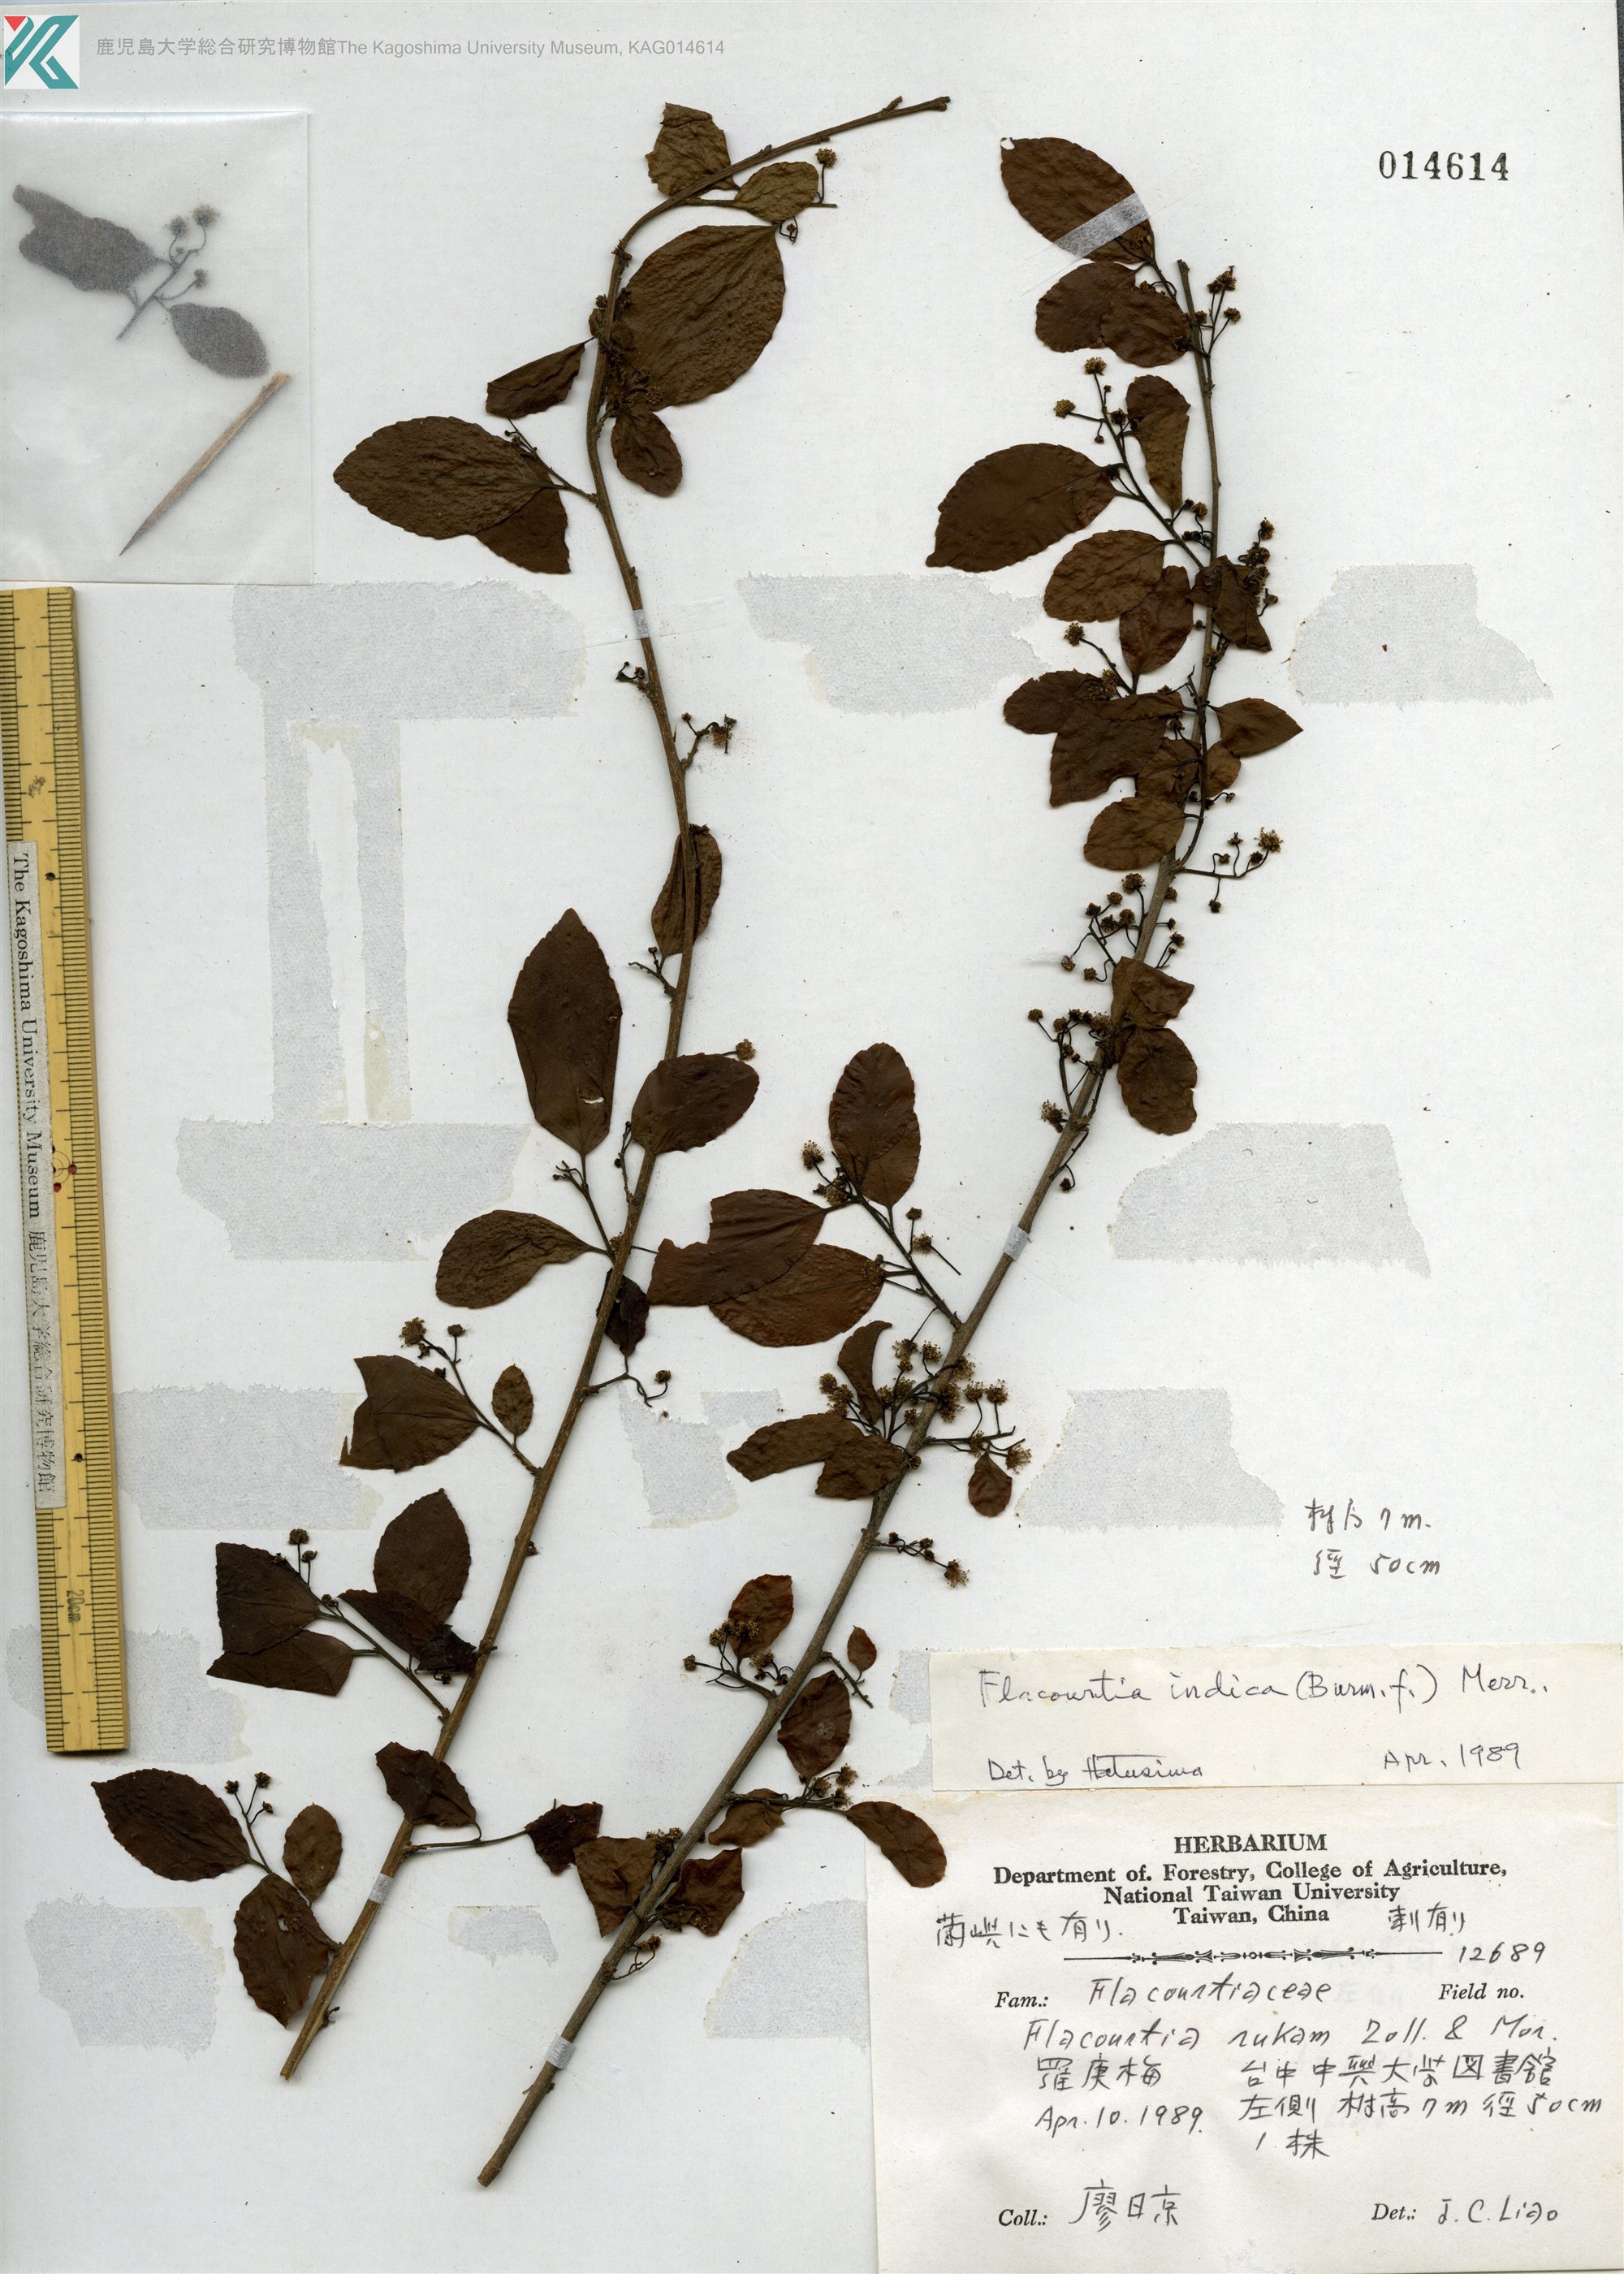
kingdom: Plantae
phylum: Tracheophyta
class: Magnoliopsida
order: Malpighiales
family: Salicaceae
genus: Flacourtia
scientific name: Flacourtia indica
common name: Governor's plum
